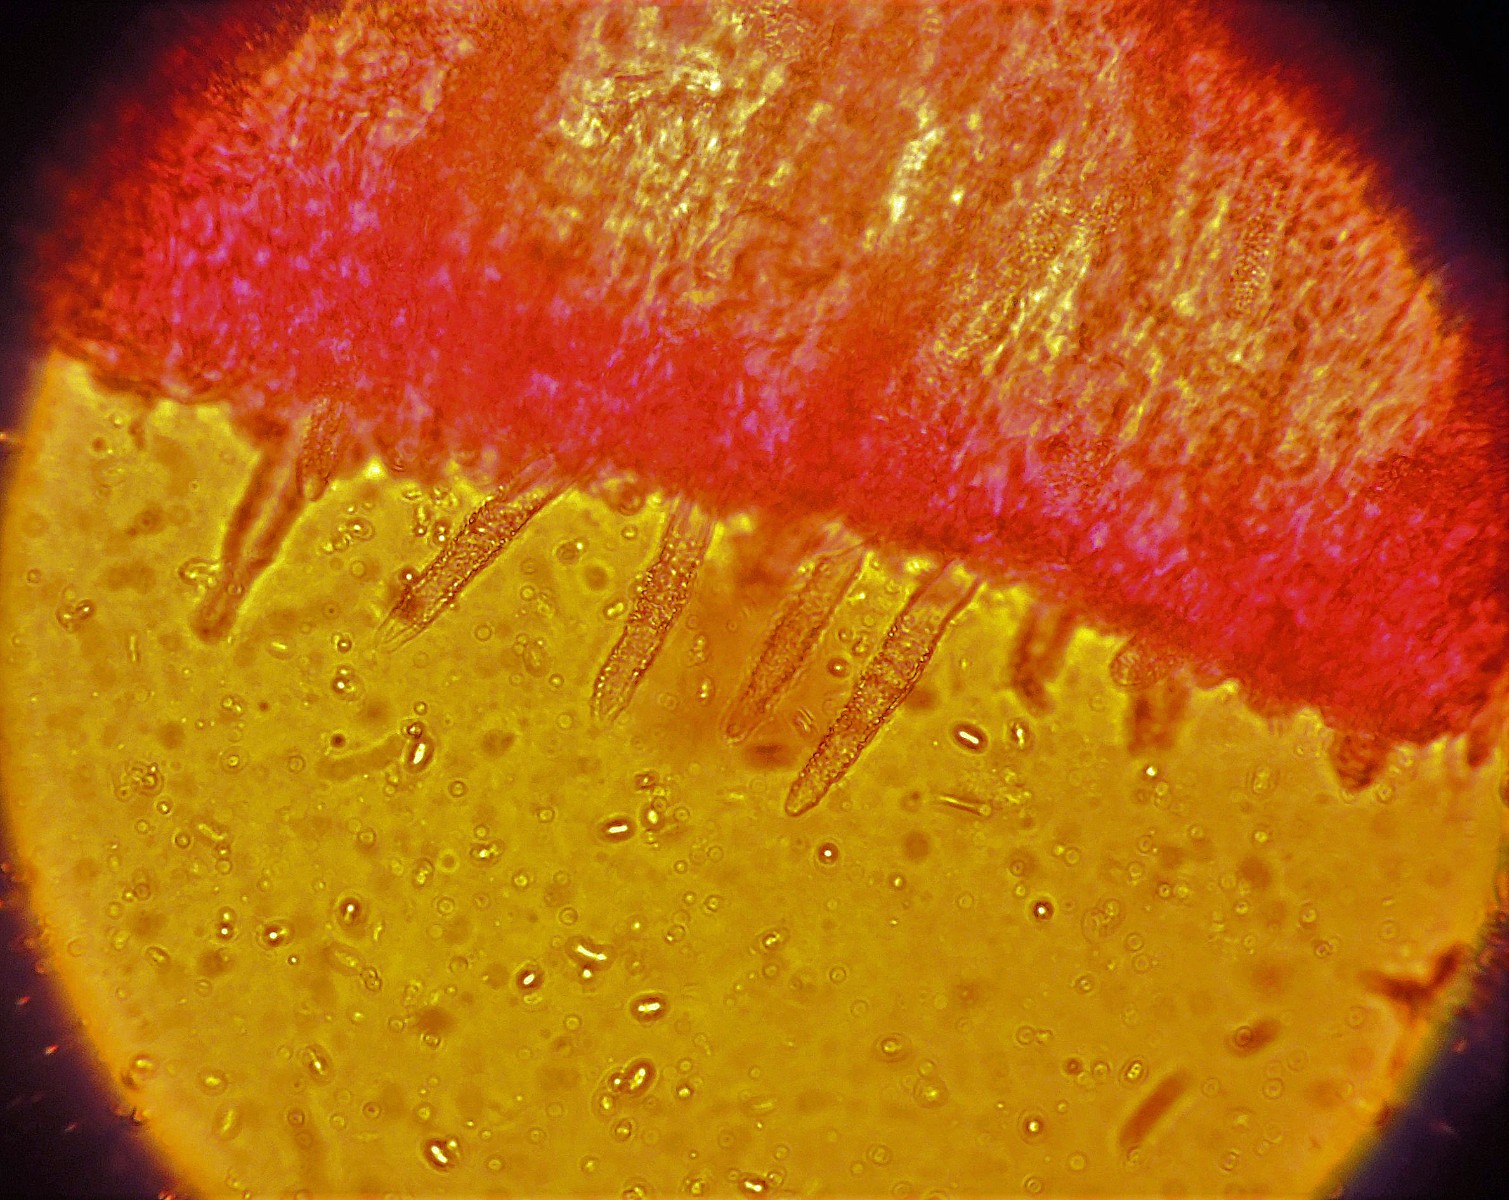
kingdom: Fungi
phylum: Basidiomycota
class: Agaricomycetes
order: Polyporales
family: Phanerochaetaceae
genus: Phanerochaete
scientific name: Phanerochaete sordida
